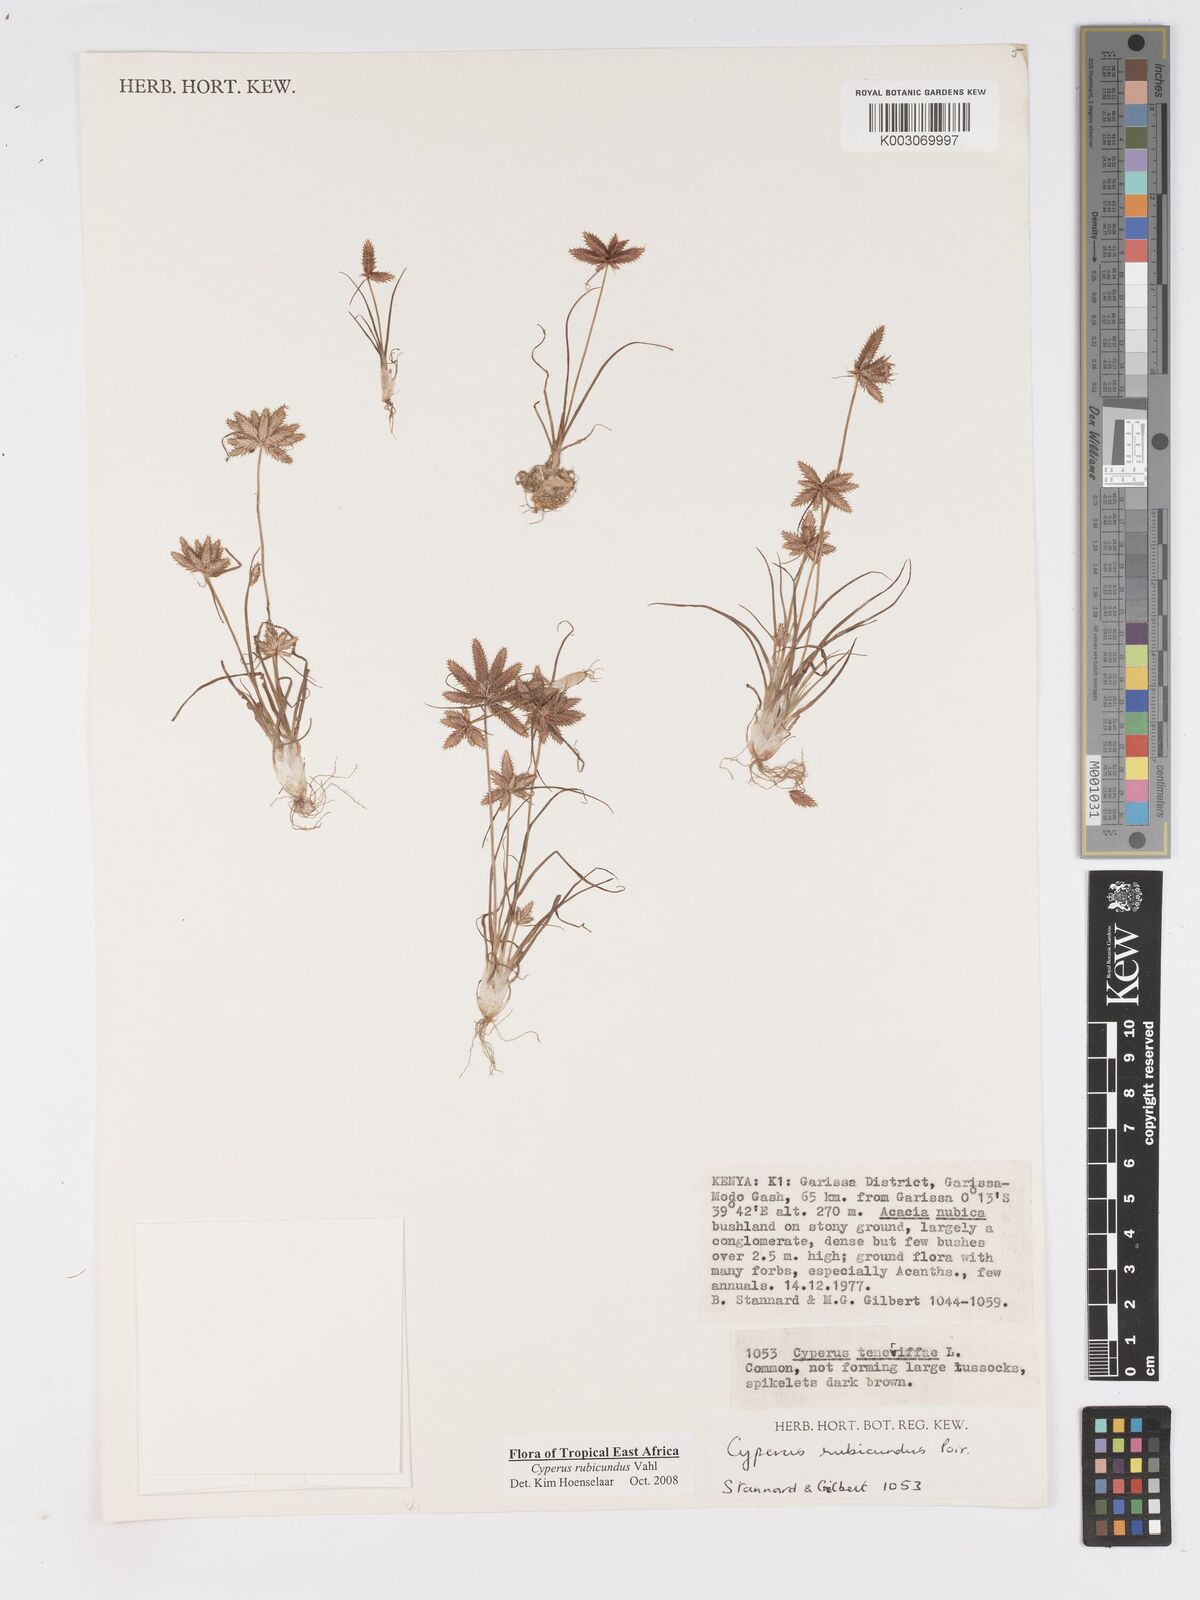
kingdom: Plantae
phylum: Tracheophyta
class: Liliopsida
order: Poales
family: Cyperaceae
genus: Cyperus
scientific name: Cyperus rubicundus
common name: Coco-grass
